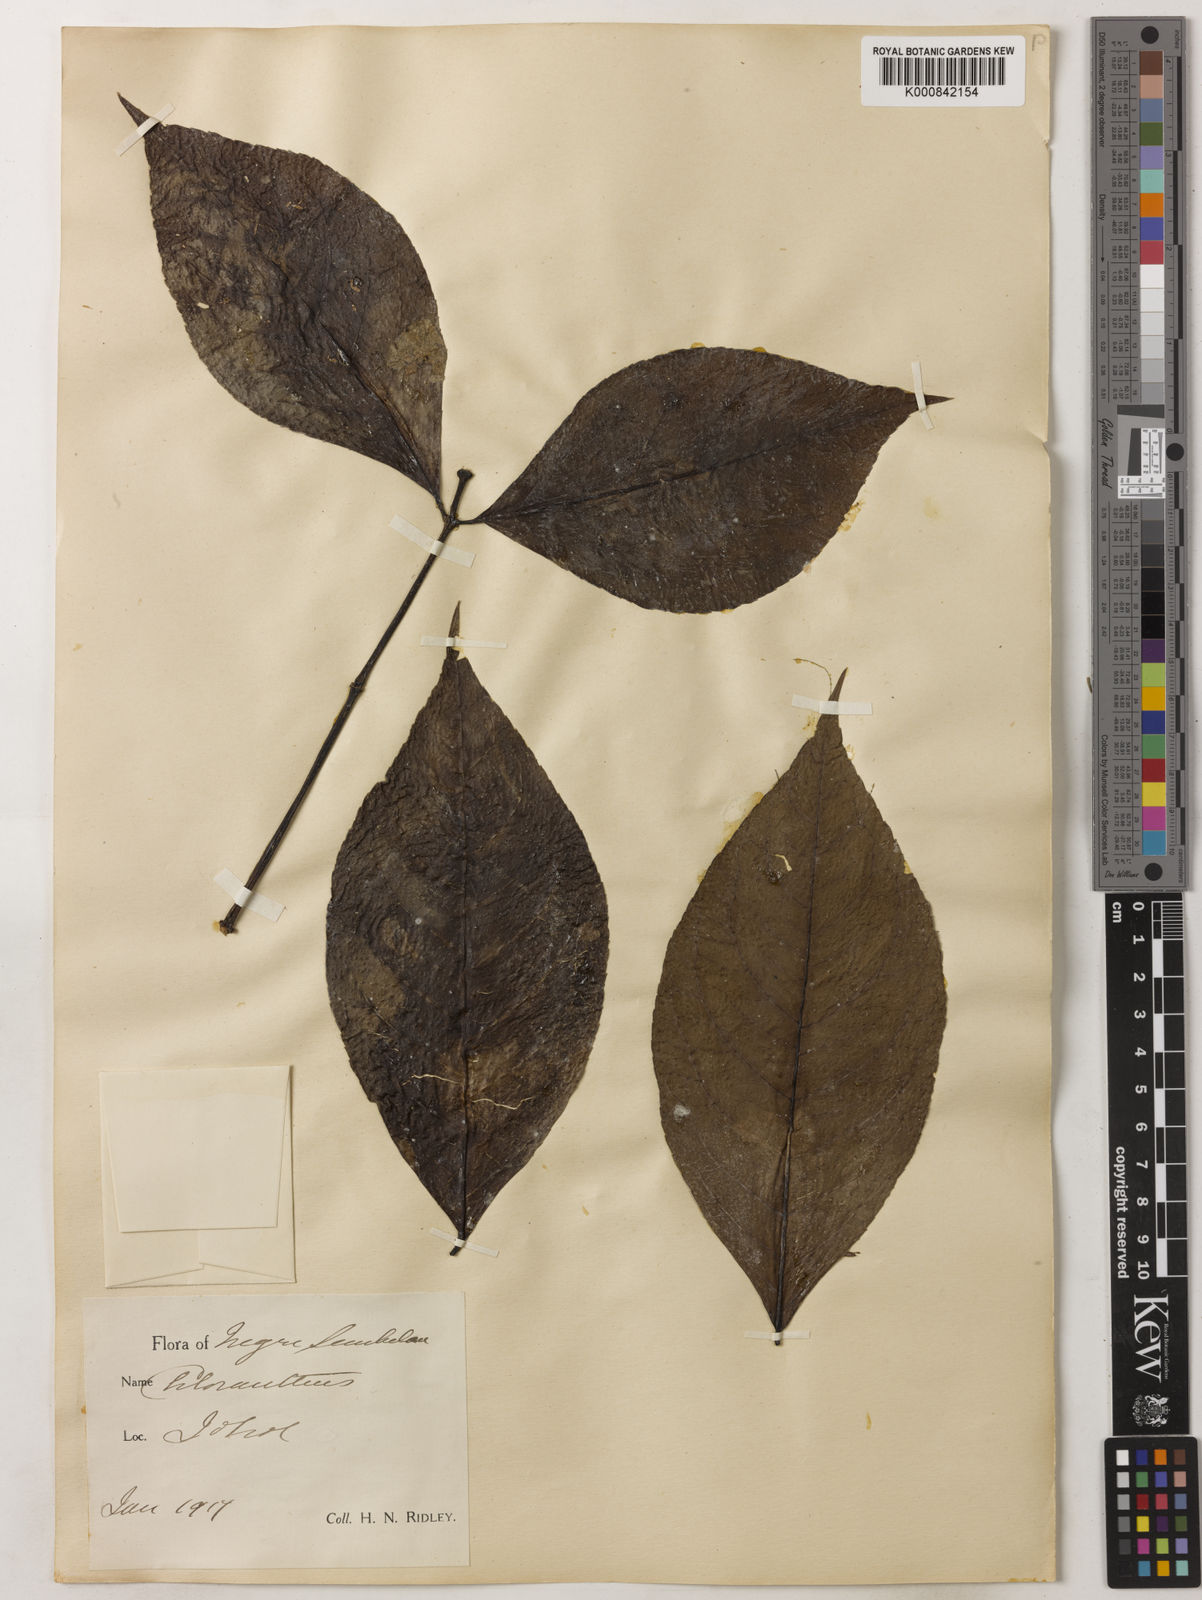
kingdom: Plantae
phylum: Tracheophyta
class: Magnoliopsida
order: Chloranthales
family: Chloranthaceae
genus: Chloranthus
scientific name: Chloranthus
